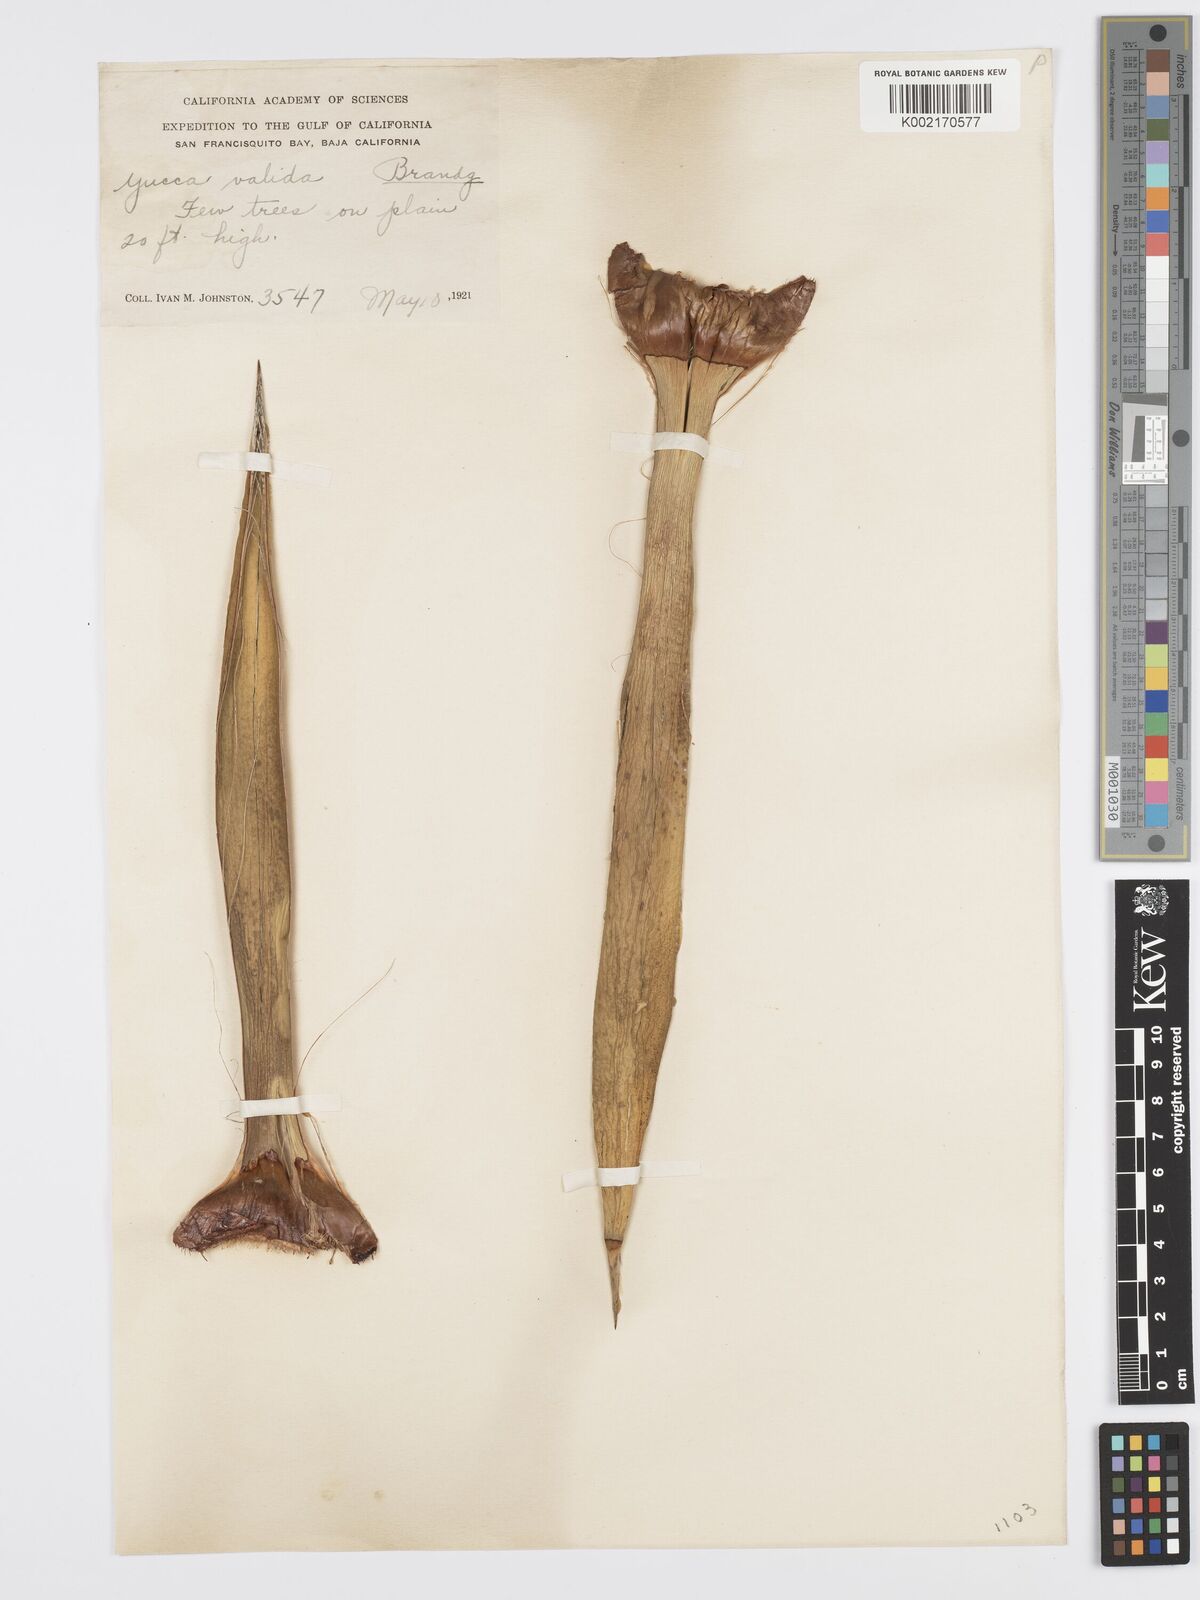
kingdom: Plantae
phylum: Tracheophyta
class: Liliopsida
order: Asparagales
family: Asparagaceae
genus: Yucca
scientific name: Yucca valida
